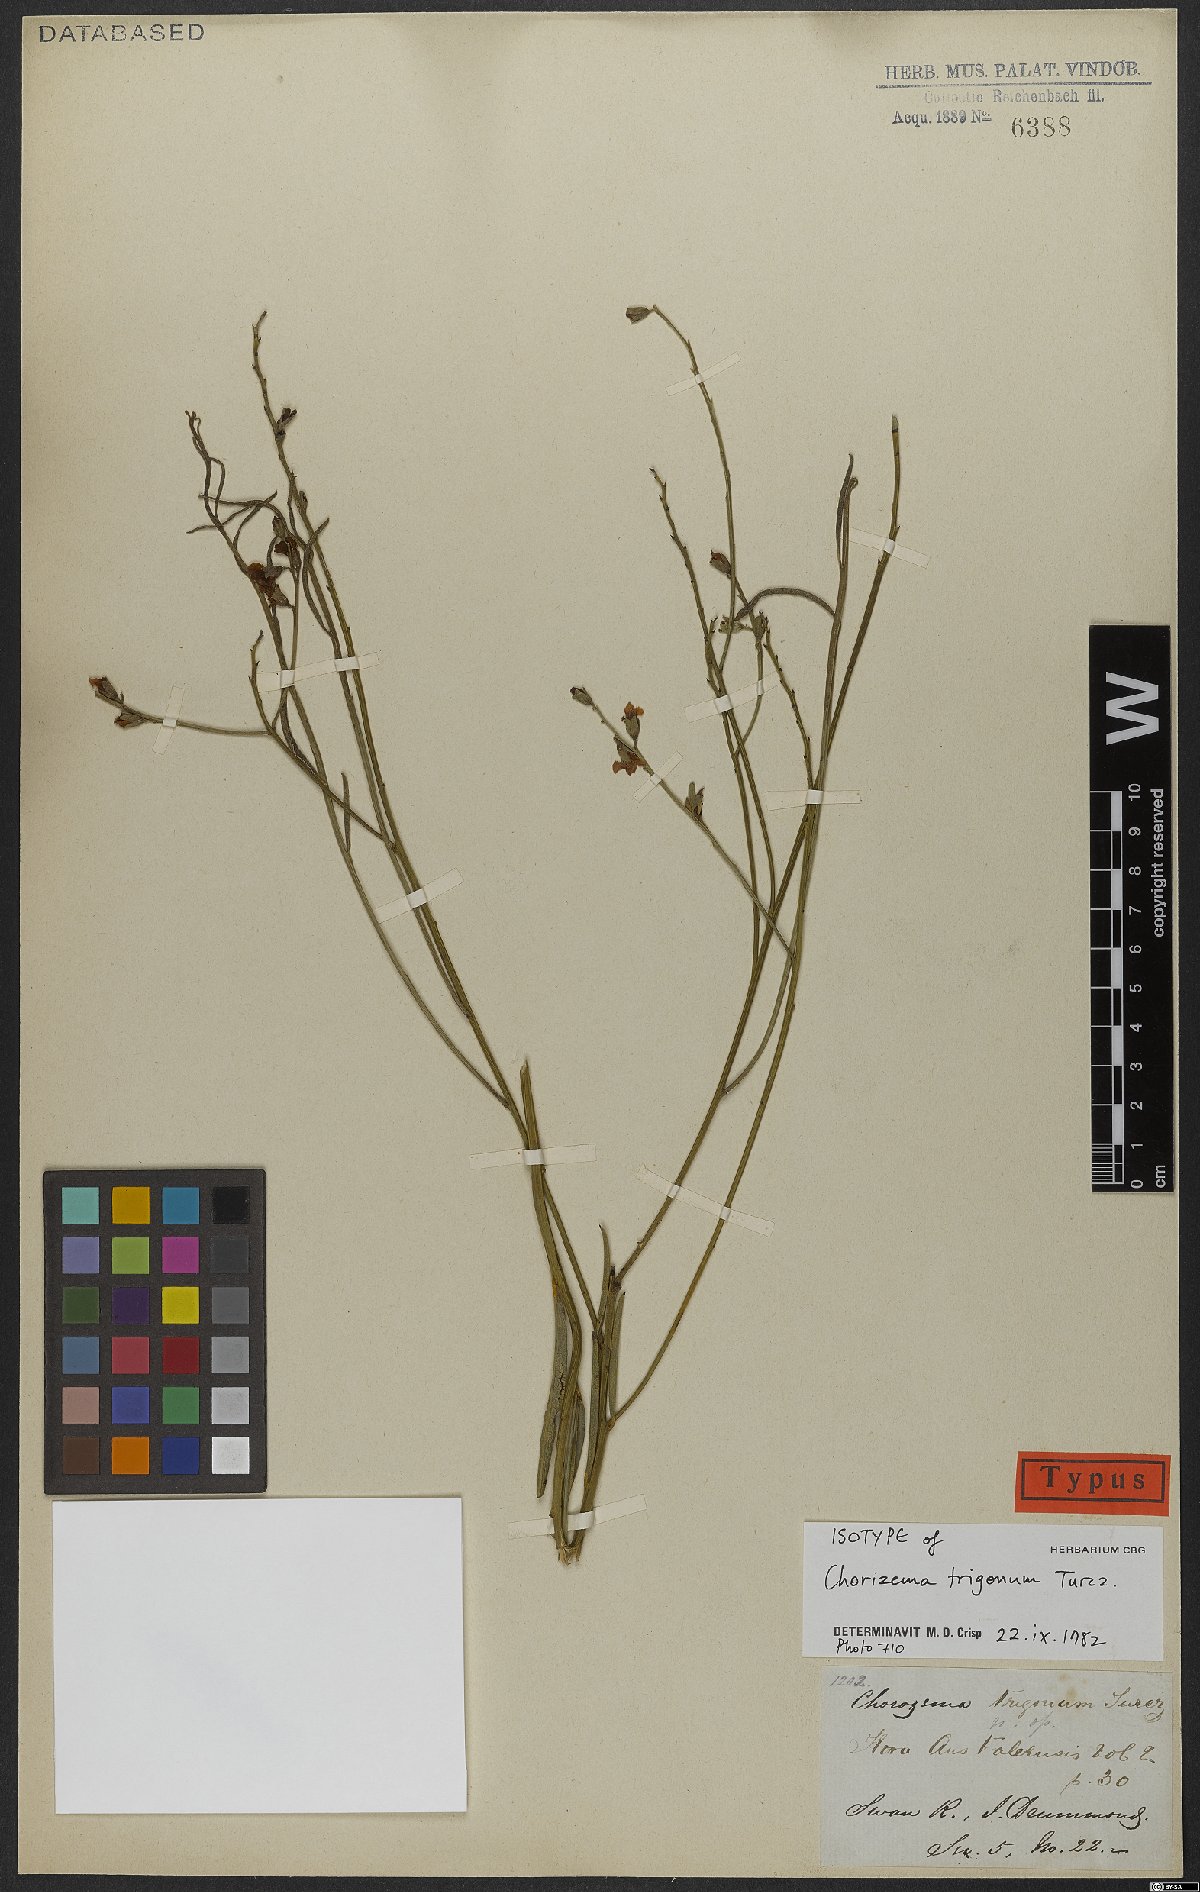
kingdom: Plantae
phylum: Tracheophyta
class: Magnoliopsida
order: Fabales
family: Fabaceae
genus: Chorizema
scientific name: Chorizema trigonum
